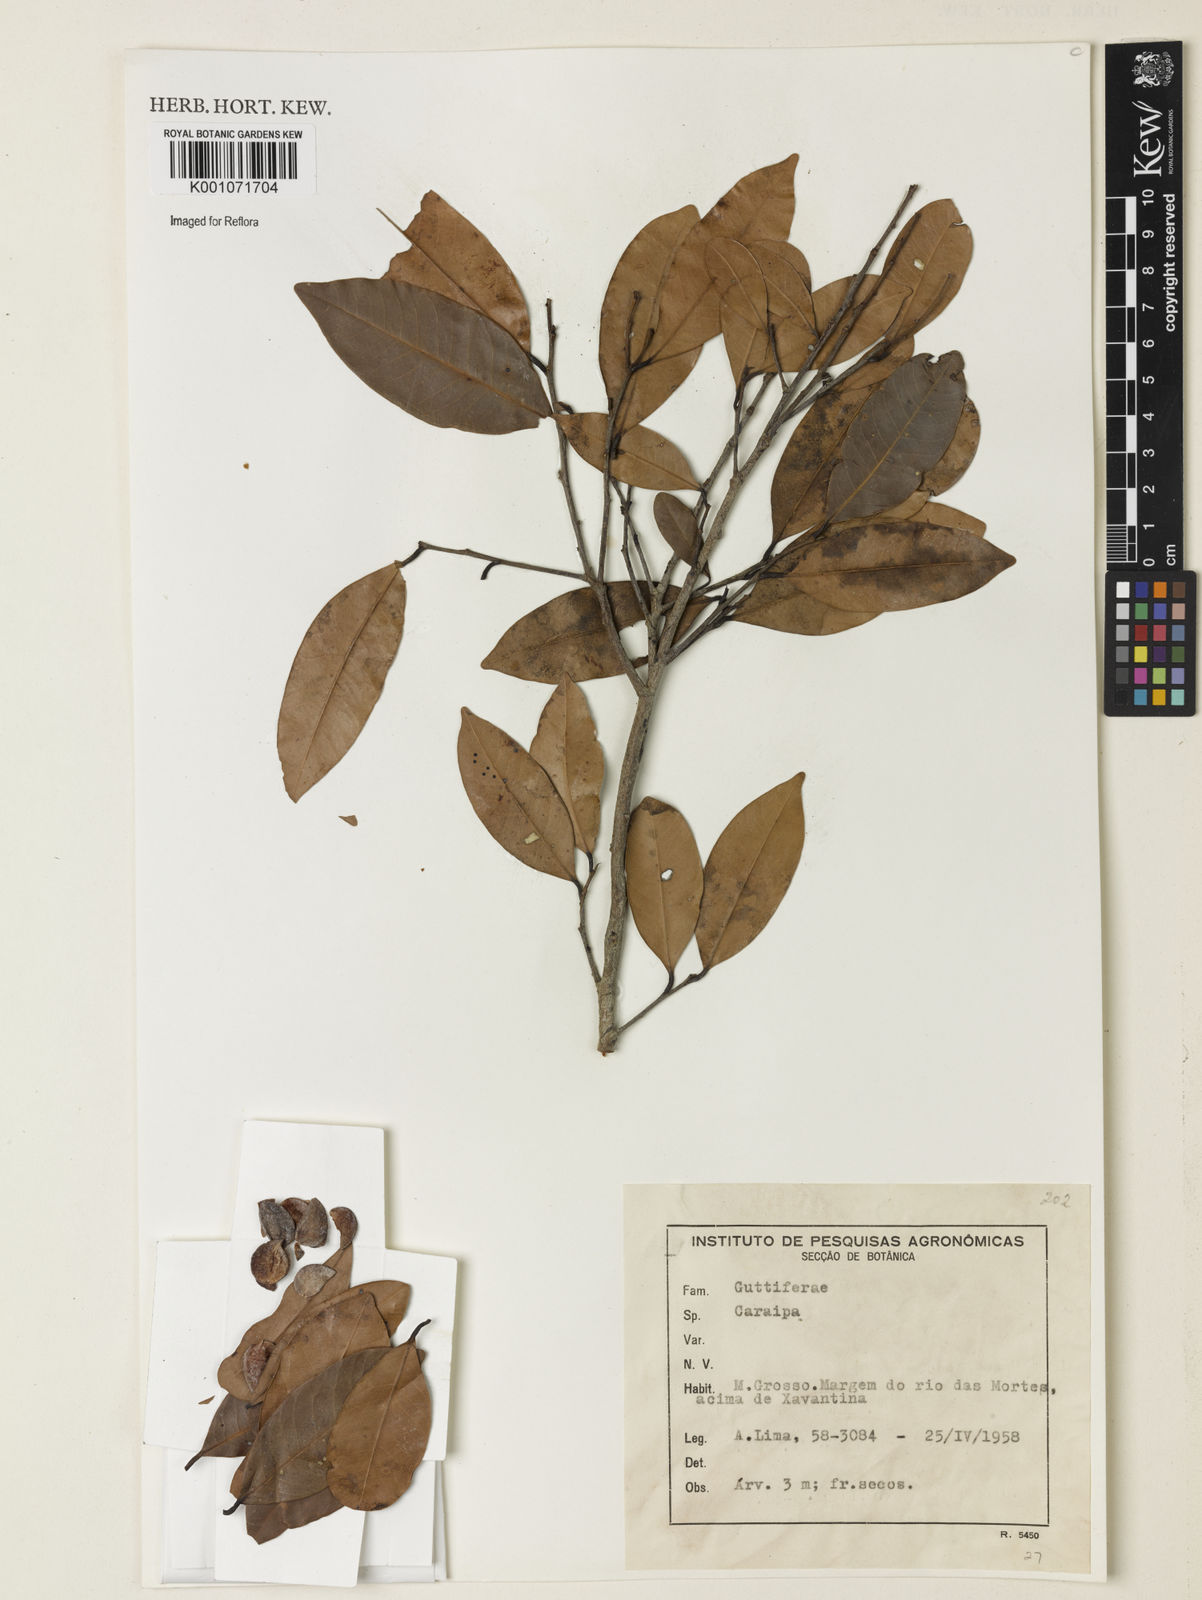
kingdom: Plantae
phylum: Tracheophyta
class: Magnoliopsida
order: Malpighiales
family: Calophyllaceae
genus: Caraipa
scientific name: Caraipa savannarum
